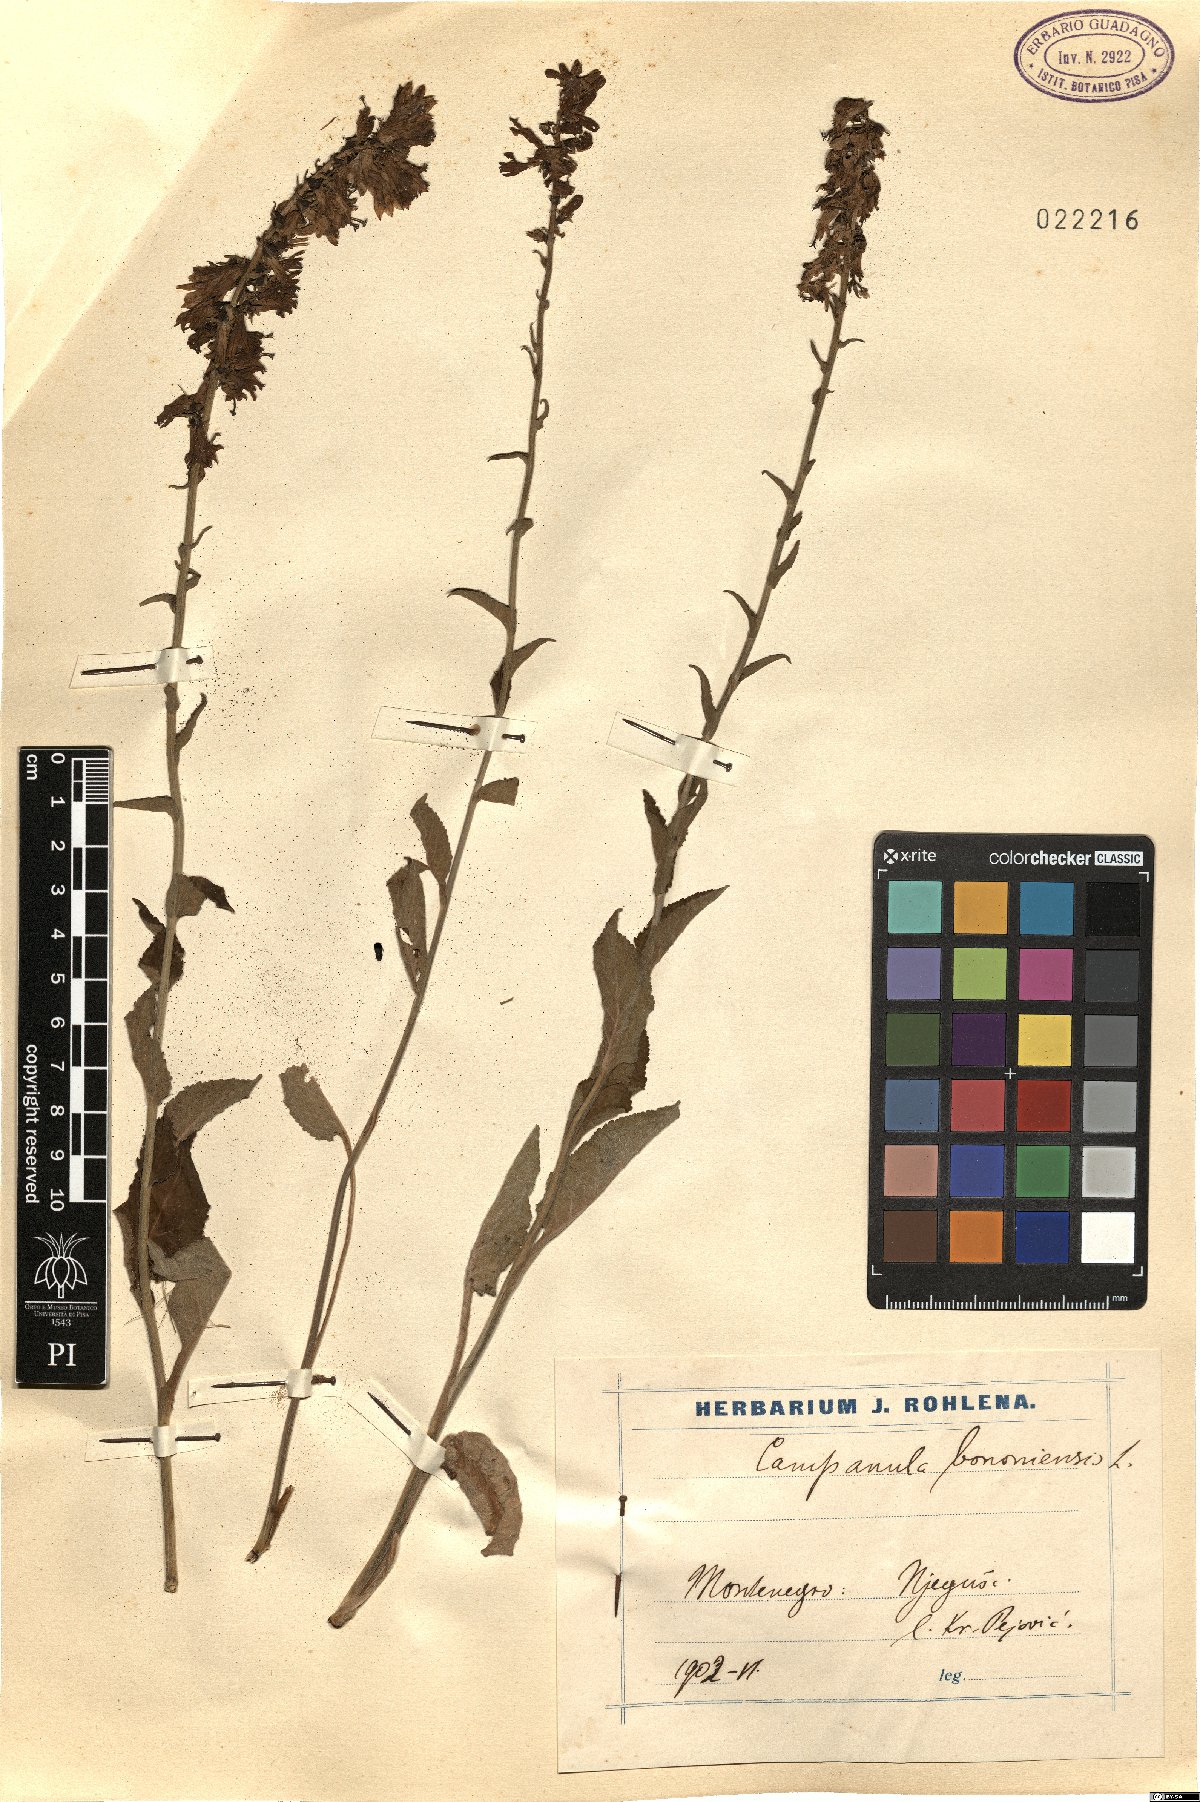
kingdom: Plantae
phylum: Tracheophyta
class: Magnoliopsida
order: Asterales
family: Campanulaceae
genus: Campanula
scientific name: Campanula bononiensis
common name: Pale bellflower
